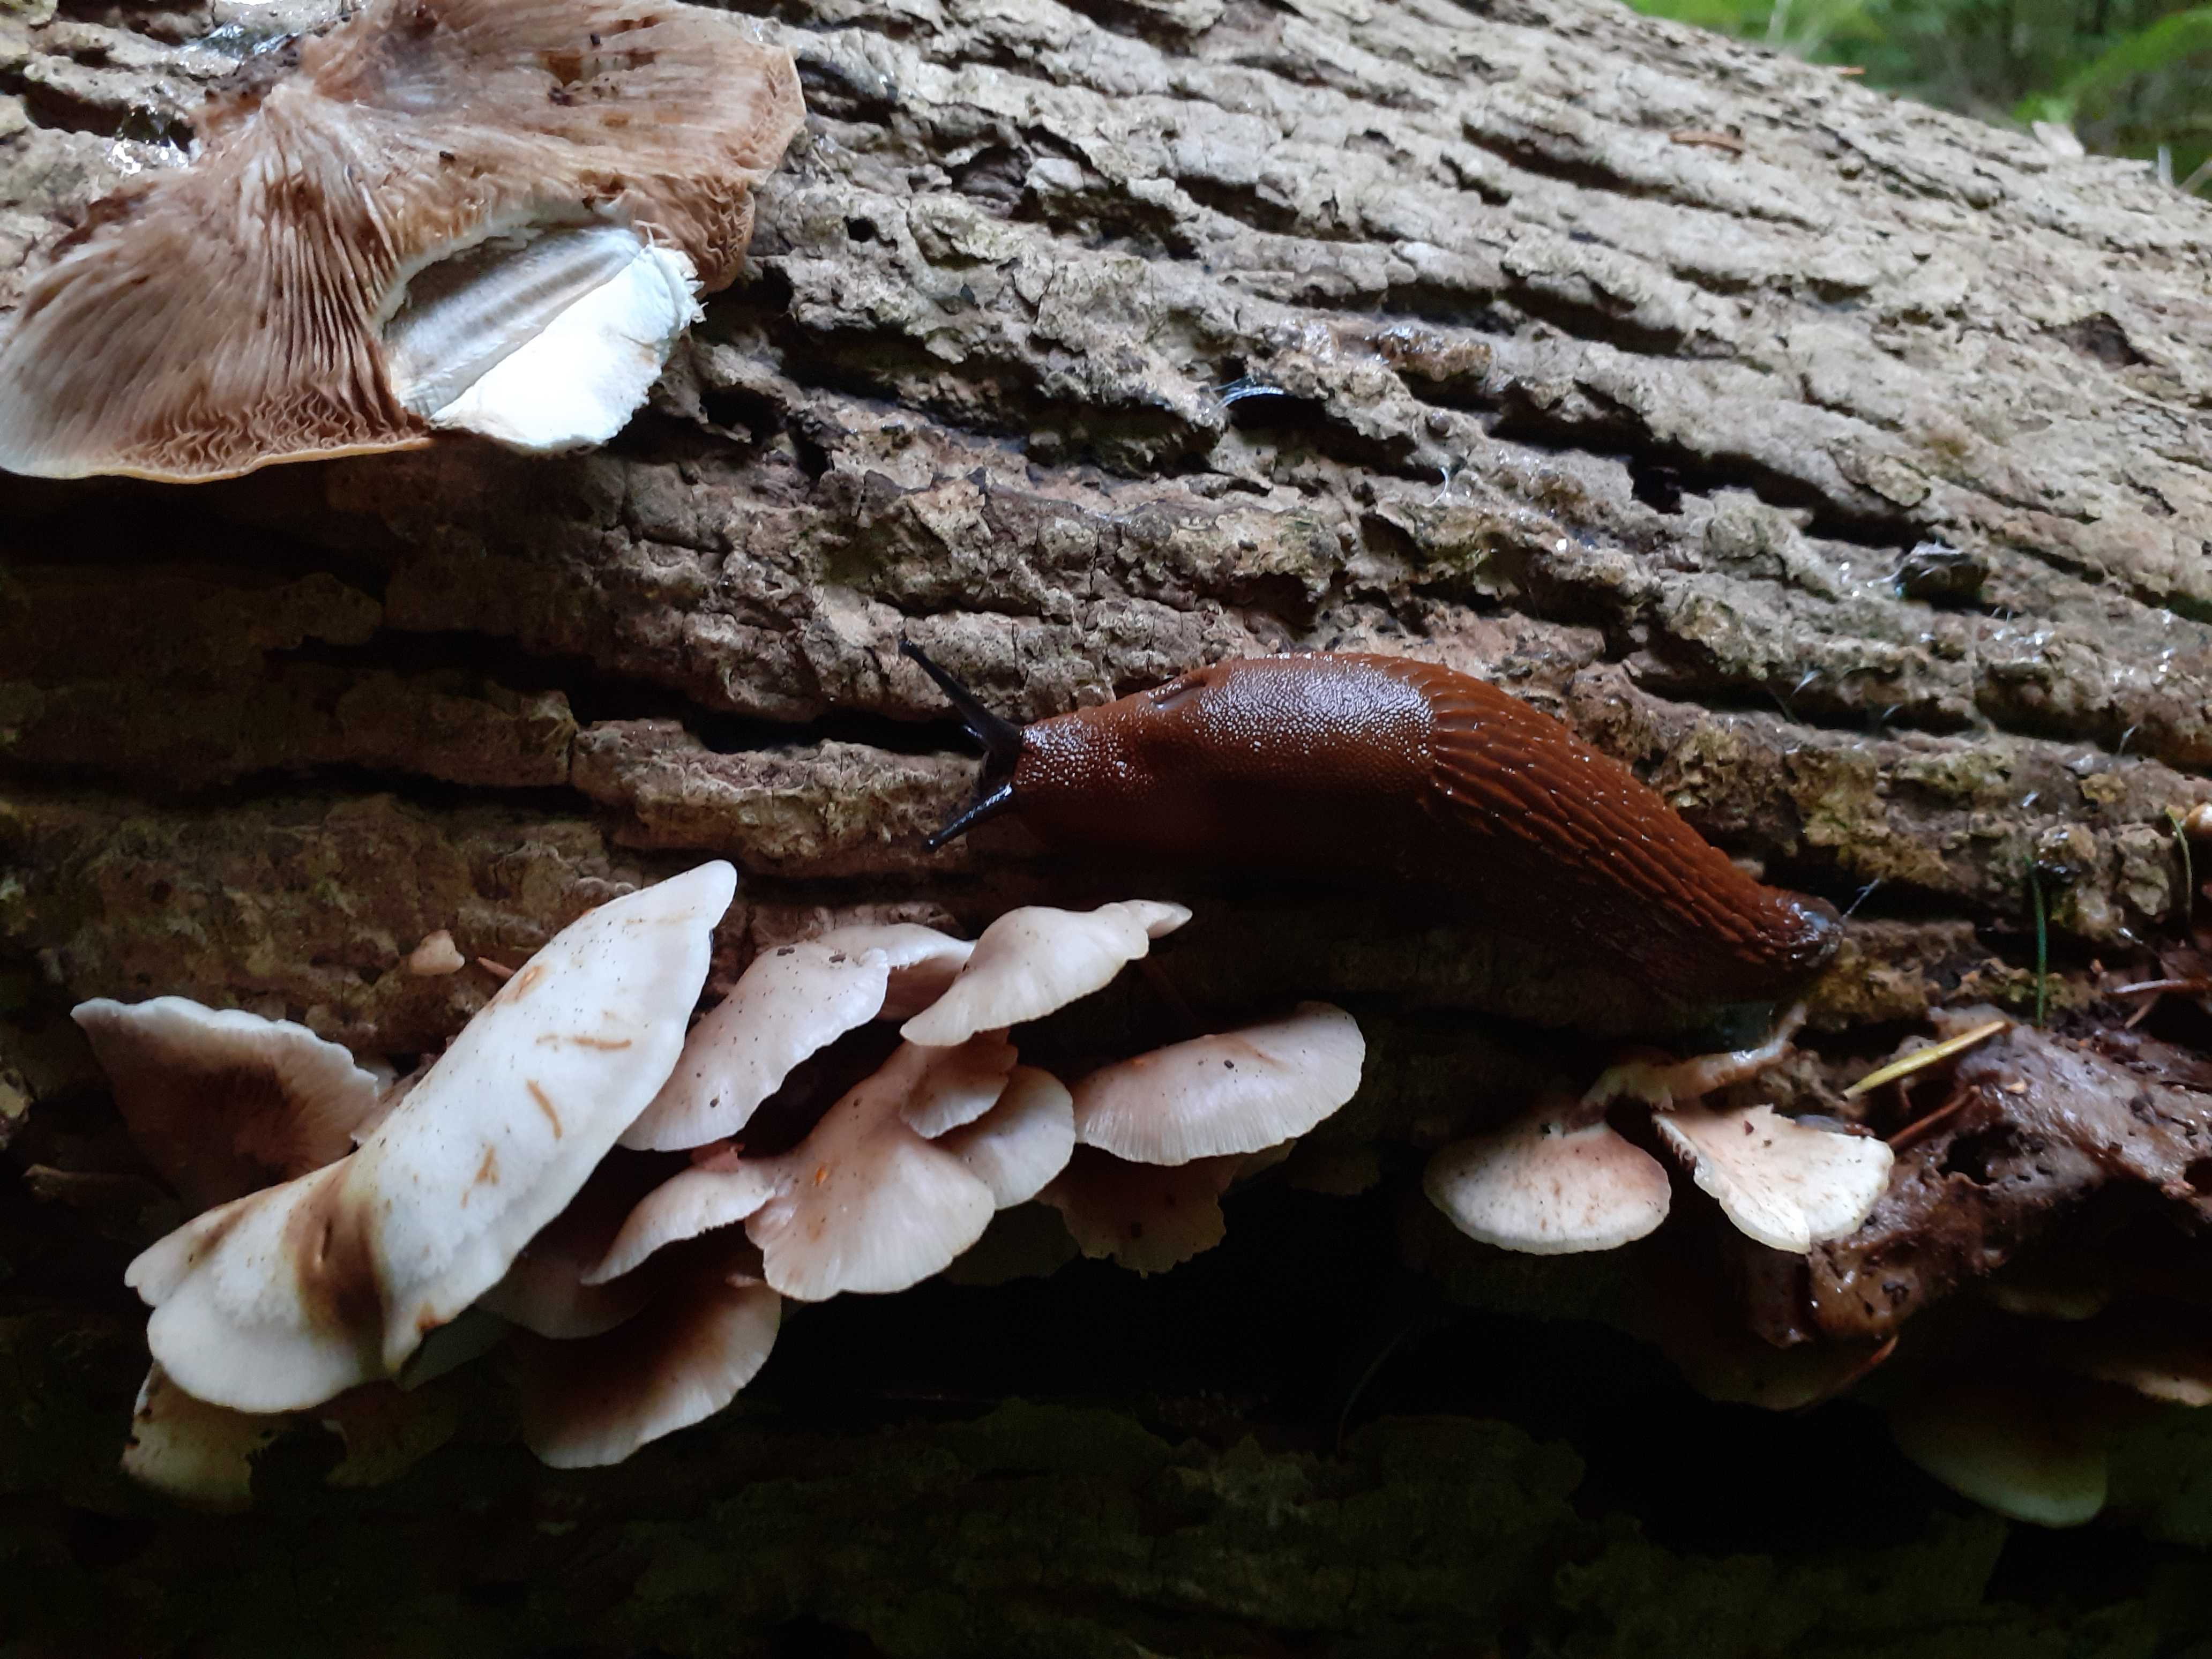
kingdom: Fungi
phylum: Basidiomycota
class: Agaricomycetes
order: Agaricales
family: Crepidotaceae
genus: Crepidotus
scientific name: Crepidotus mollis
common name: blød muslingesvamp
